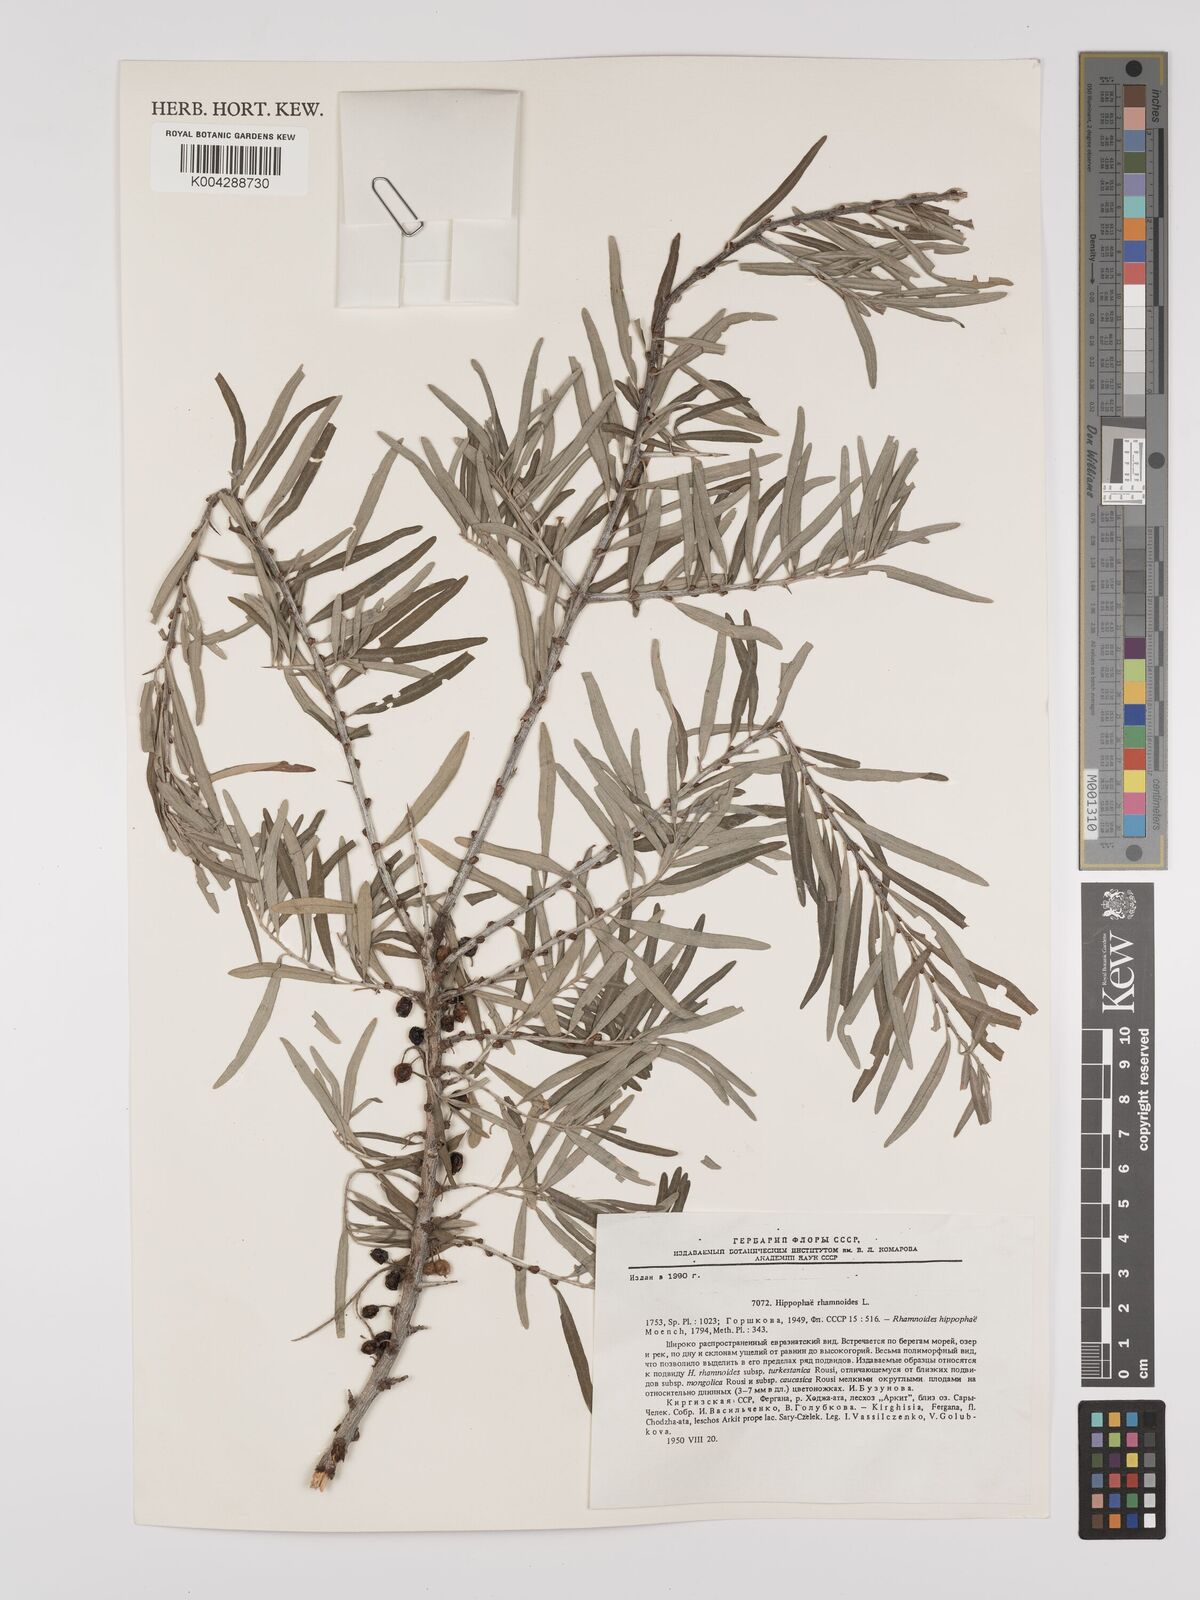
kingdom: Plantae
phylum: Tracheophyta
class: Magnoliopsida
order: Rosales
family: Elaeagnaceae
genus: Hippophae
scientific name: Hippophae rhamnoides
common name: Sea-buckthorn
